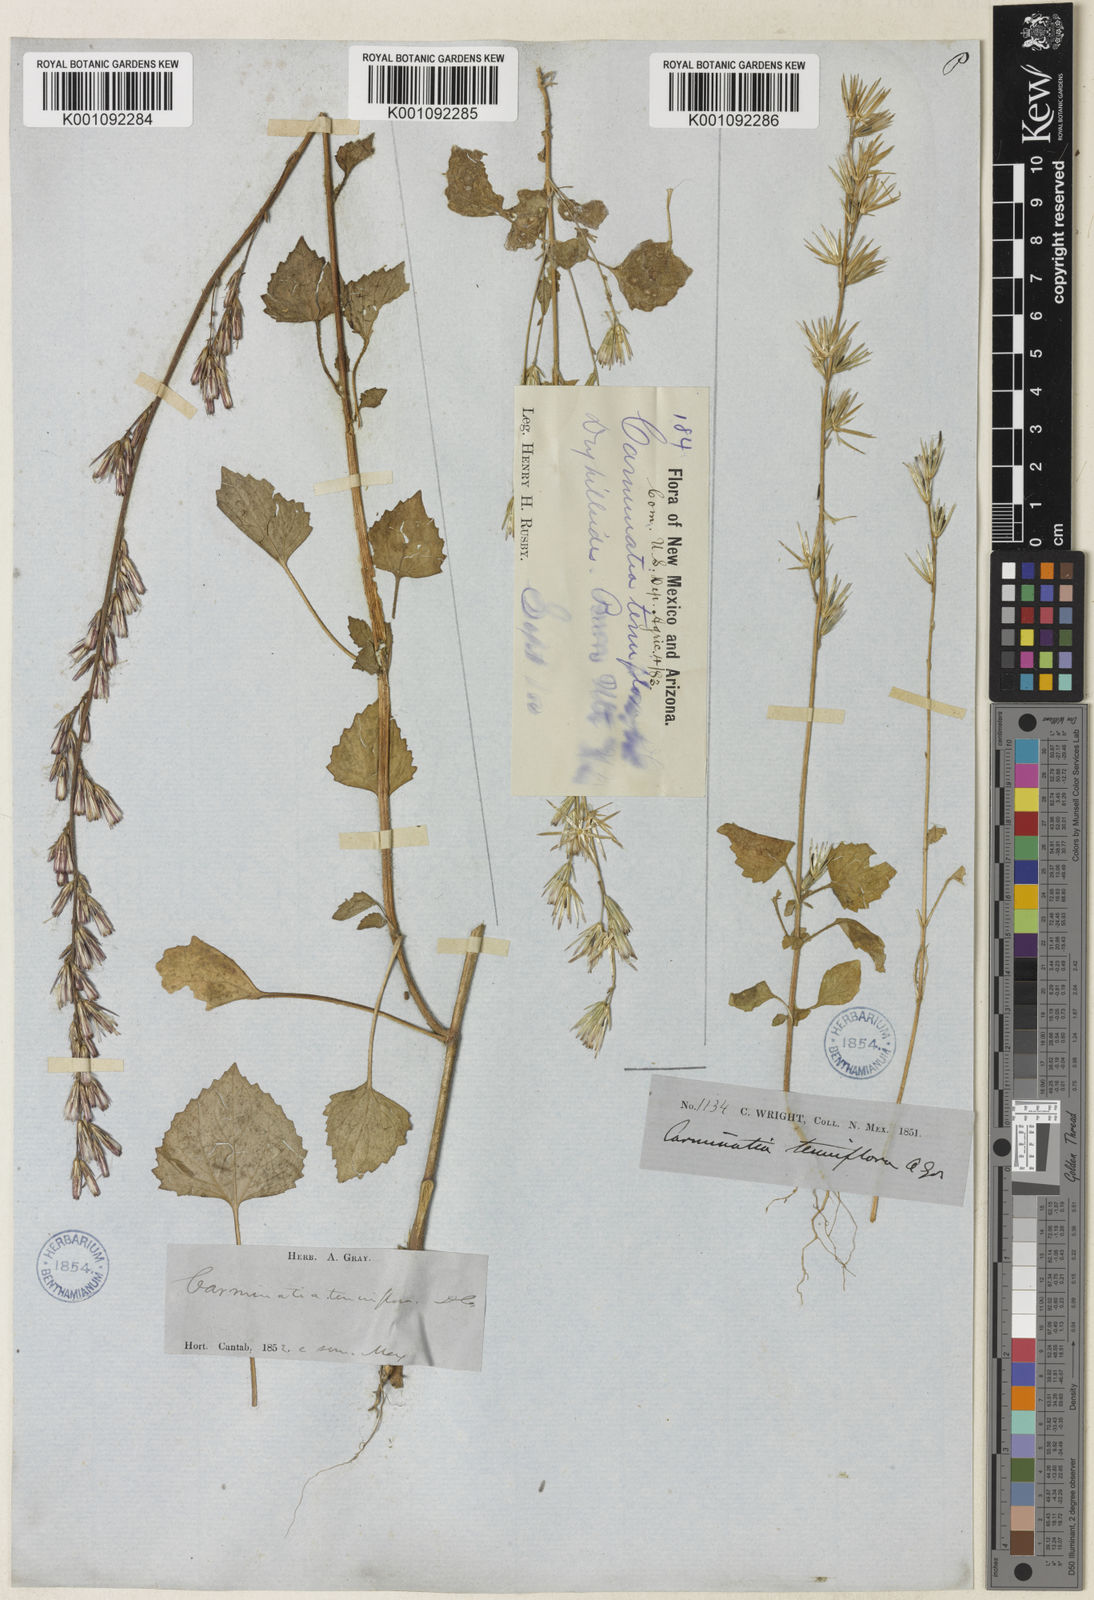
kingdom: Plantae
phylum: Tracheophyta
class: Magnoliopsida
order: Asterales
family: Asteraceae
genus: Carminatia
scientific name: Carminatia tenuiflora
